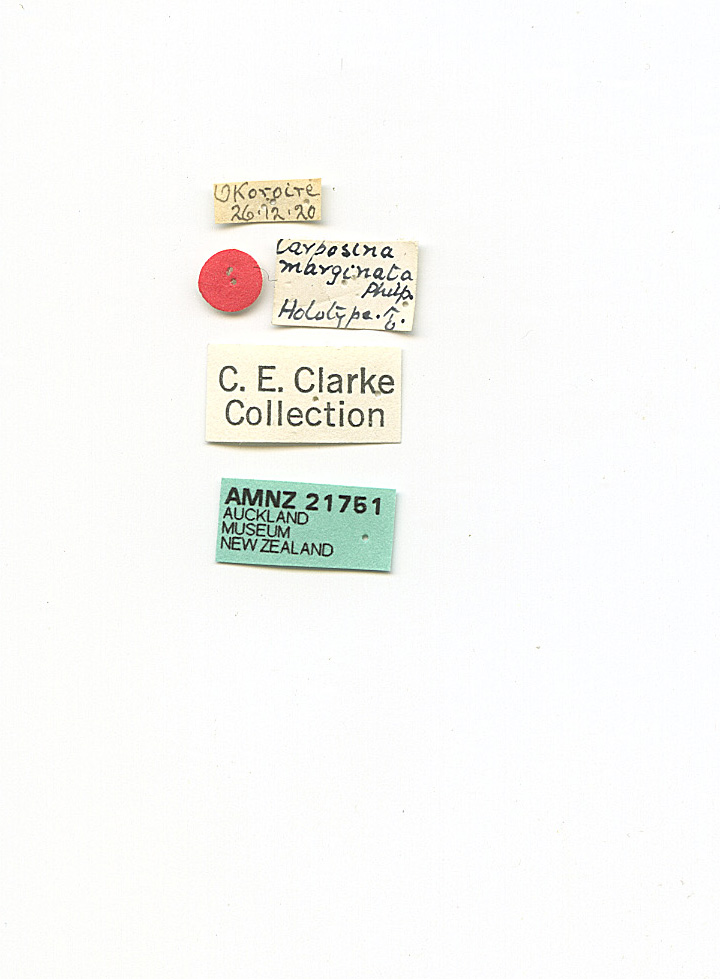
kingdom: Animalia
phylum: Arthropoda
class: Insecta
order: Lepidoptera
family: Carposinidae
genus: Paramorpha
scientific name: Paramorpha
